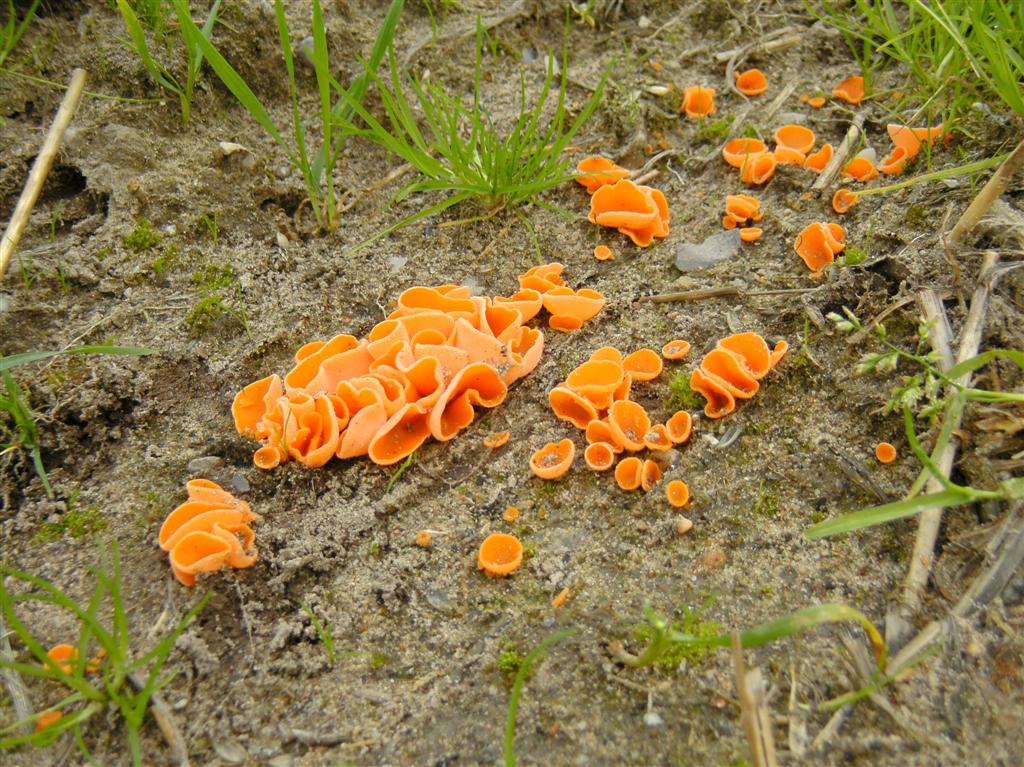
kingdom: Fungi
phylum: Ascomycota
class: Pezizomycetes
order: Pezizales
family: Pyronemataceae
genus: Aleuria
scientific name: Aleuria aurantia
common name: almindelig orangebæger
